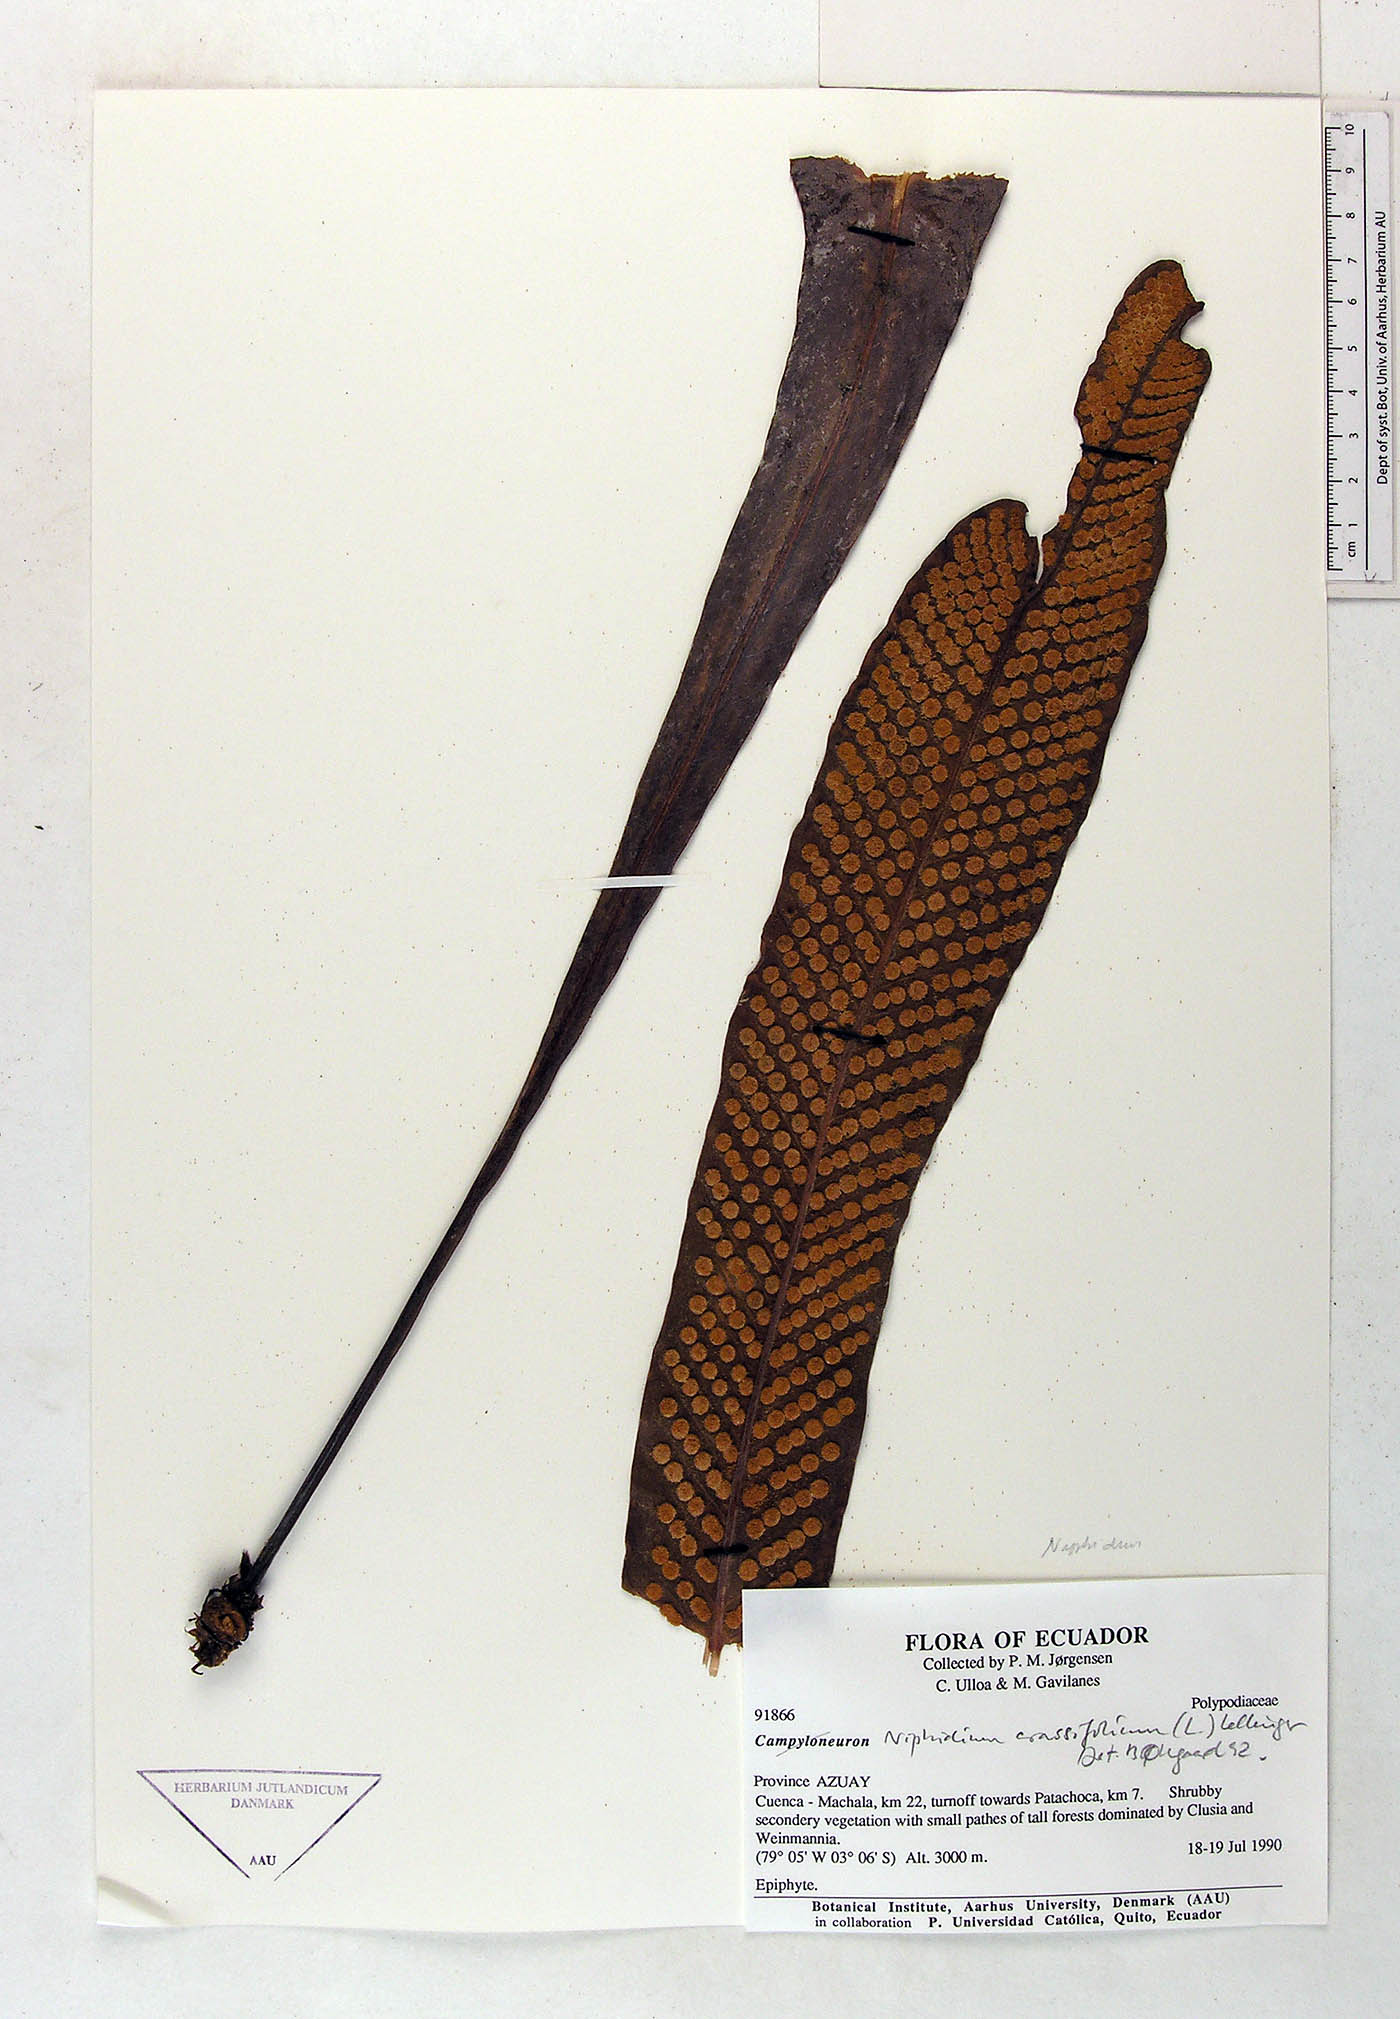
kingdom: Plantae
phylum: Tracheophyta
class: Polypodiopsida
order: Polypodiales
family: Polypodiaceae
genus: Niphidium
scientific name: Niphidium crassifolium
